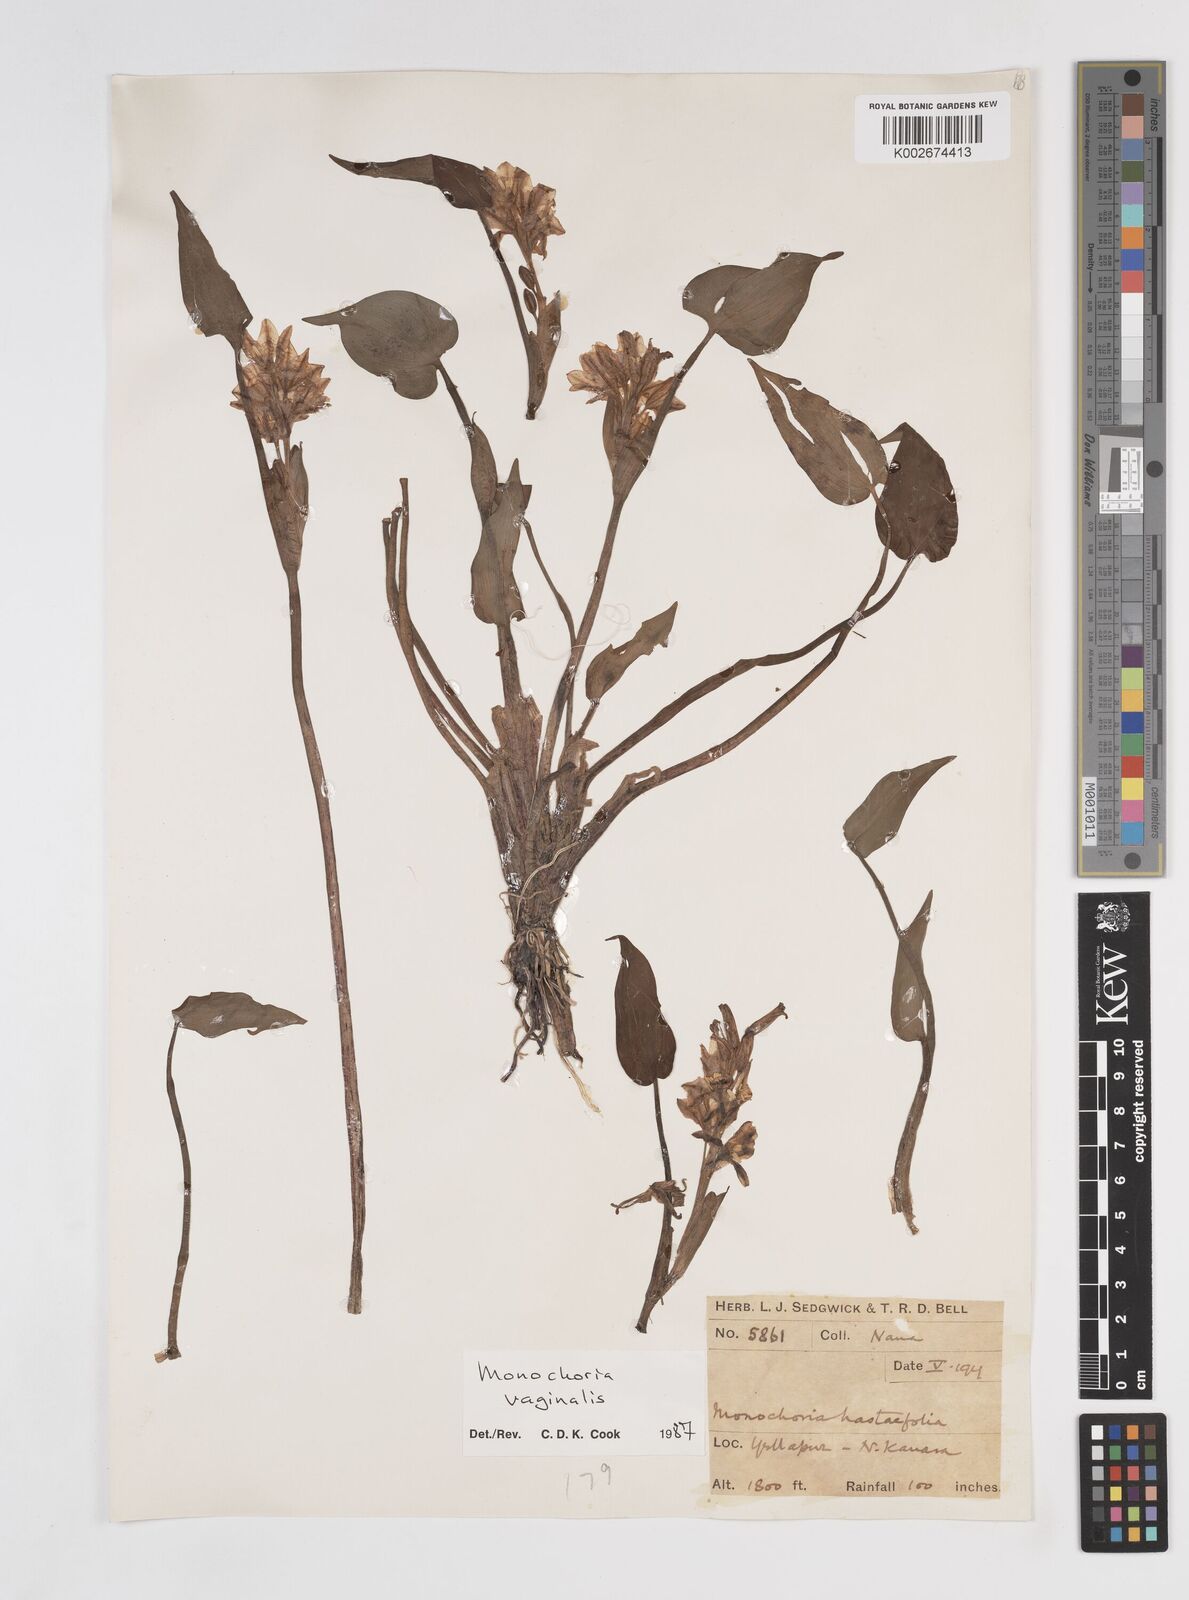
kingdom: Plantae
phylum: Tracheophyta
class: Liliopsida
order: Commelinales
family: Pontederiaceae
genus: Pontederia
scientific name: Pontederia vaginalis
